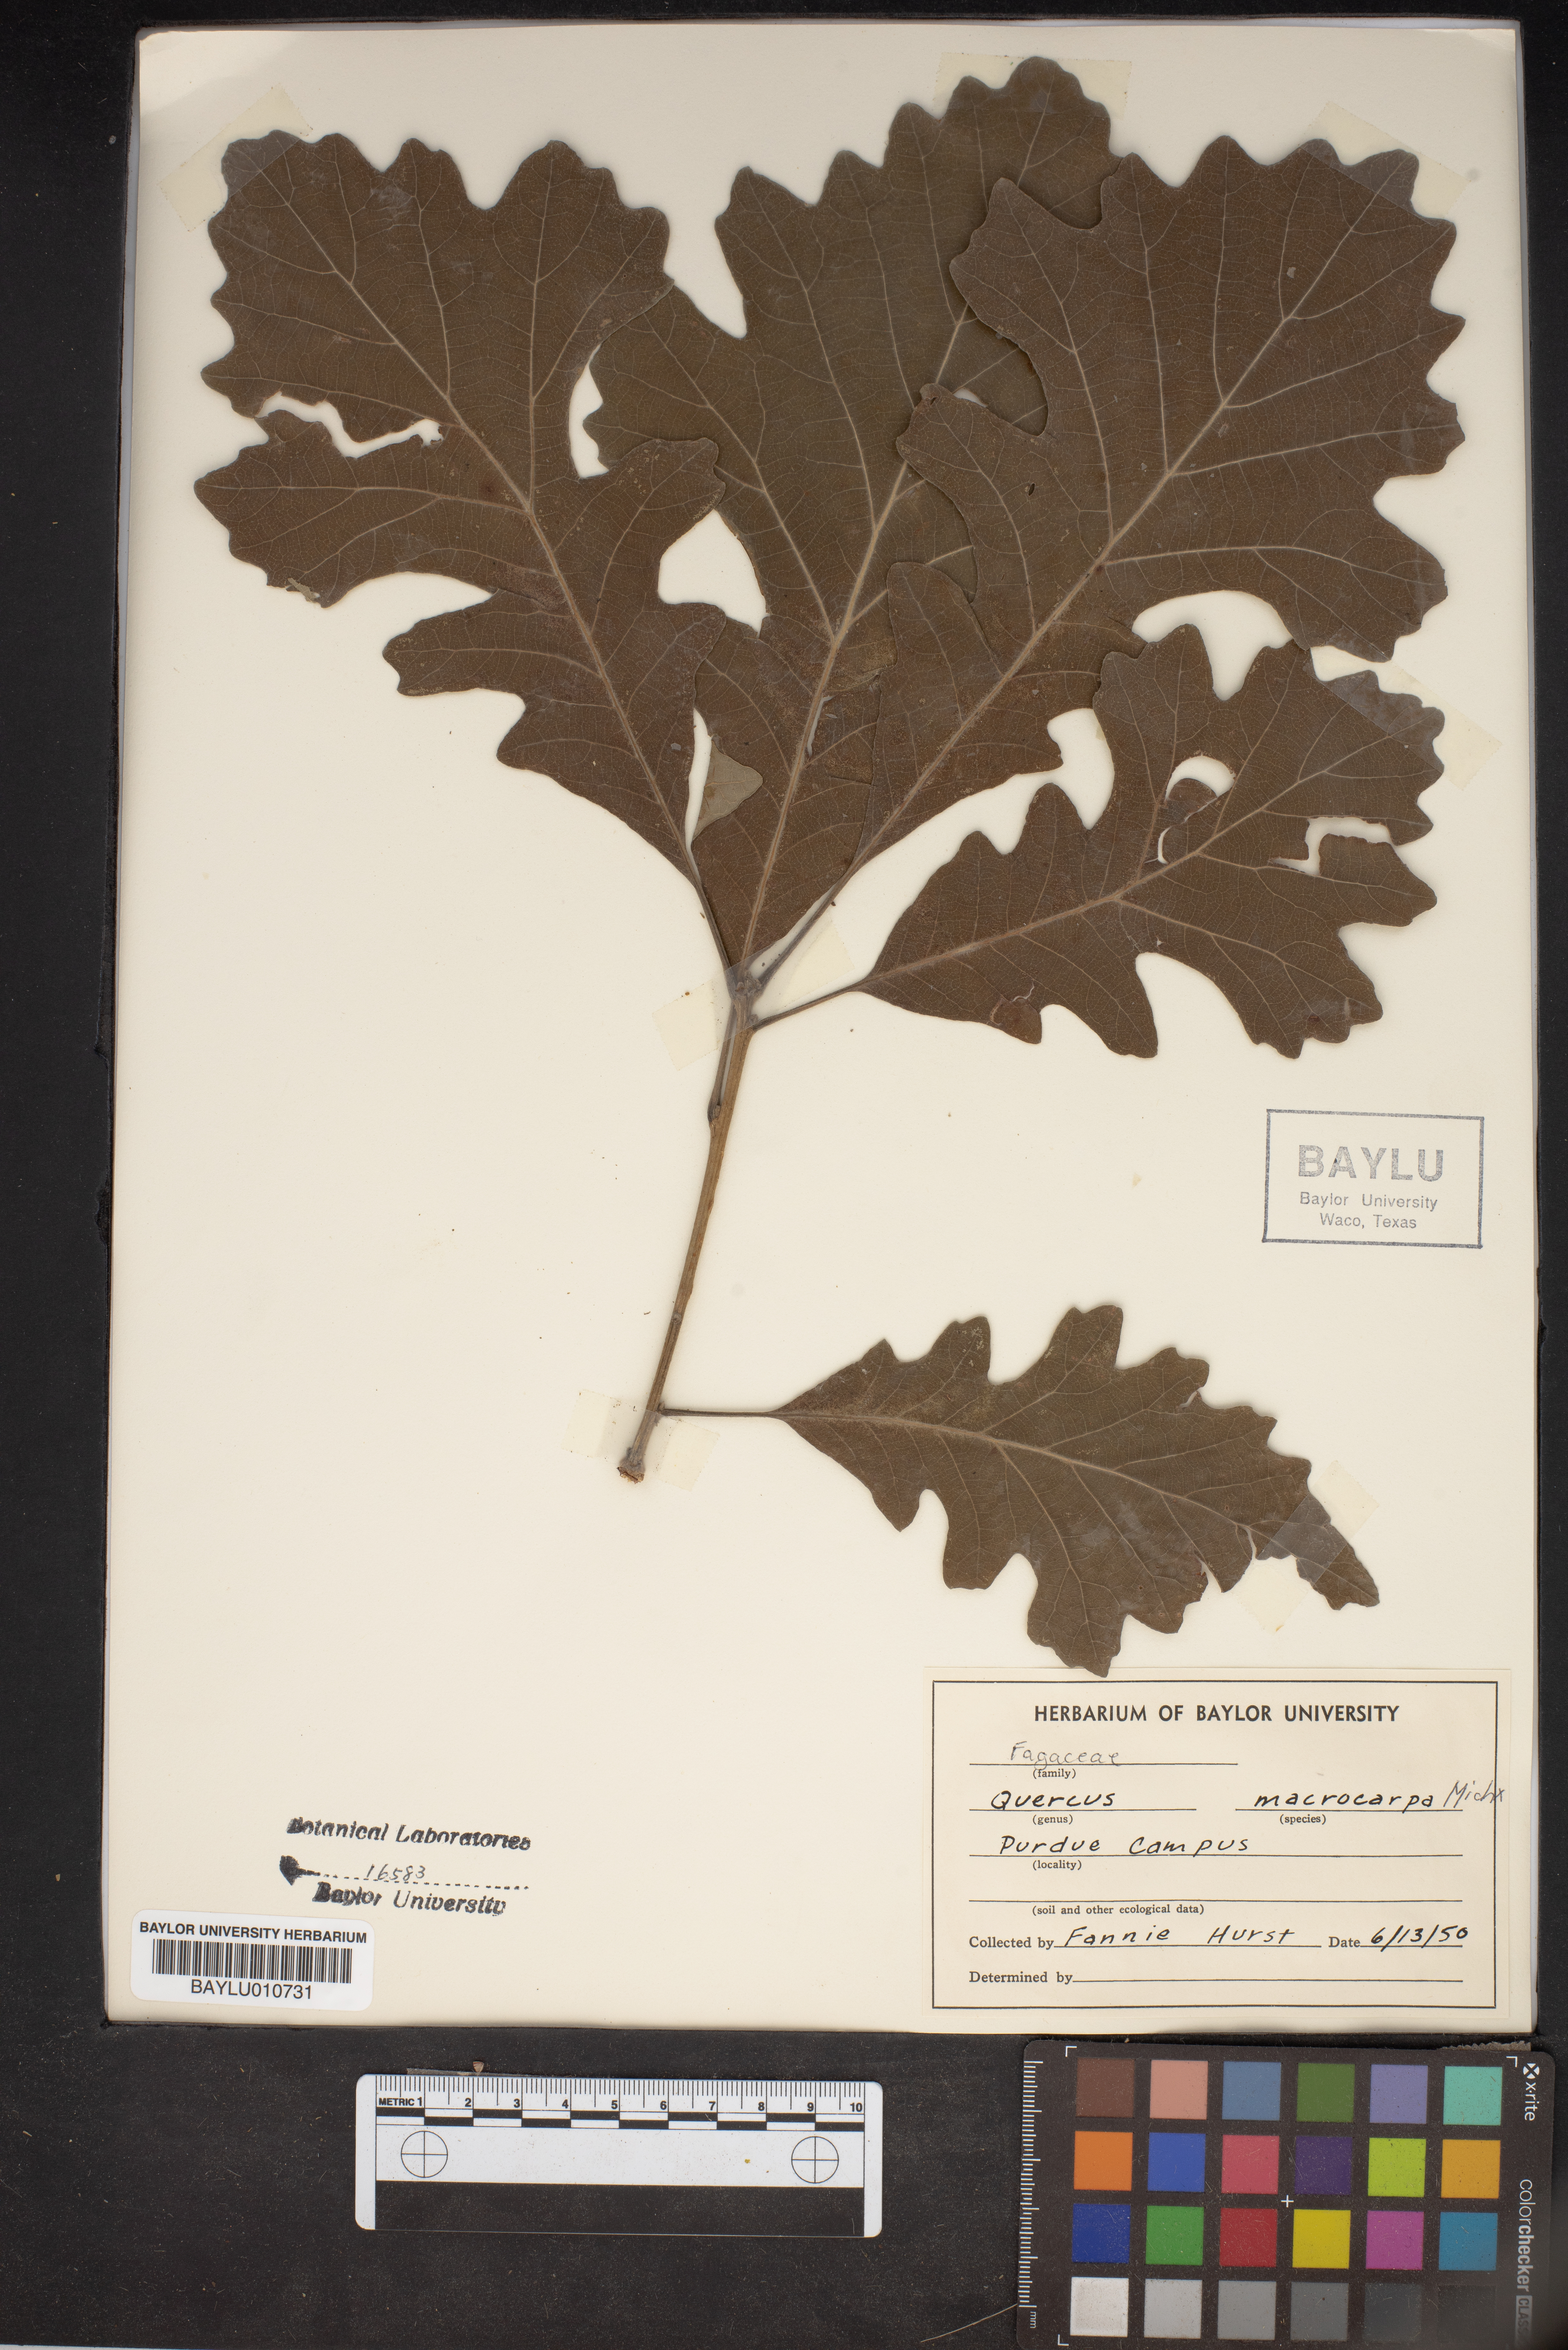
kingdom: Plantae
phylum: Tracheophyta
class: Magnoliopsida
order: Fagales
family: Fagaceae
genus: Quercus
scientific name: Quercus macrocarpa
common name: Bur oak
